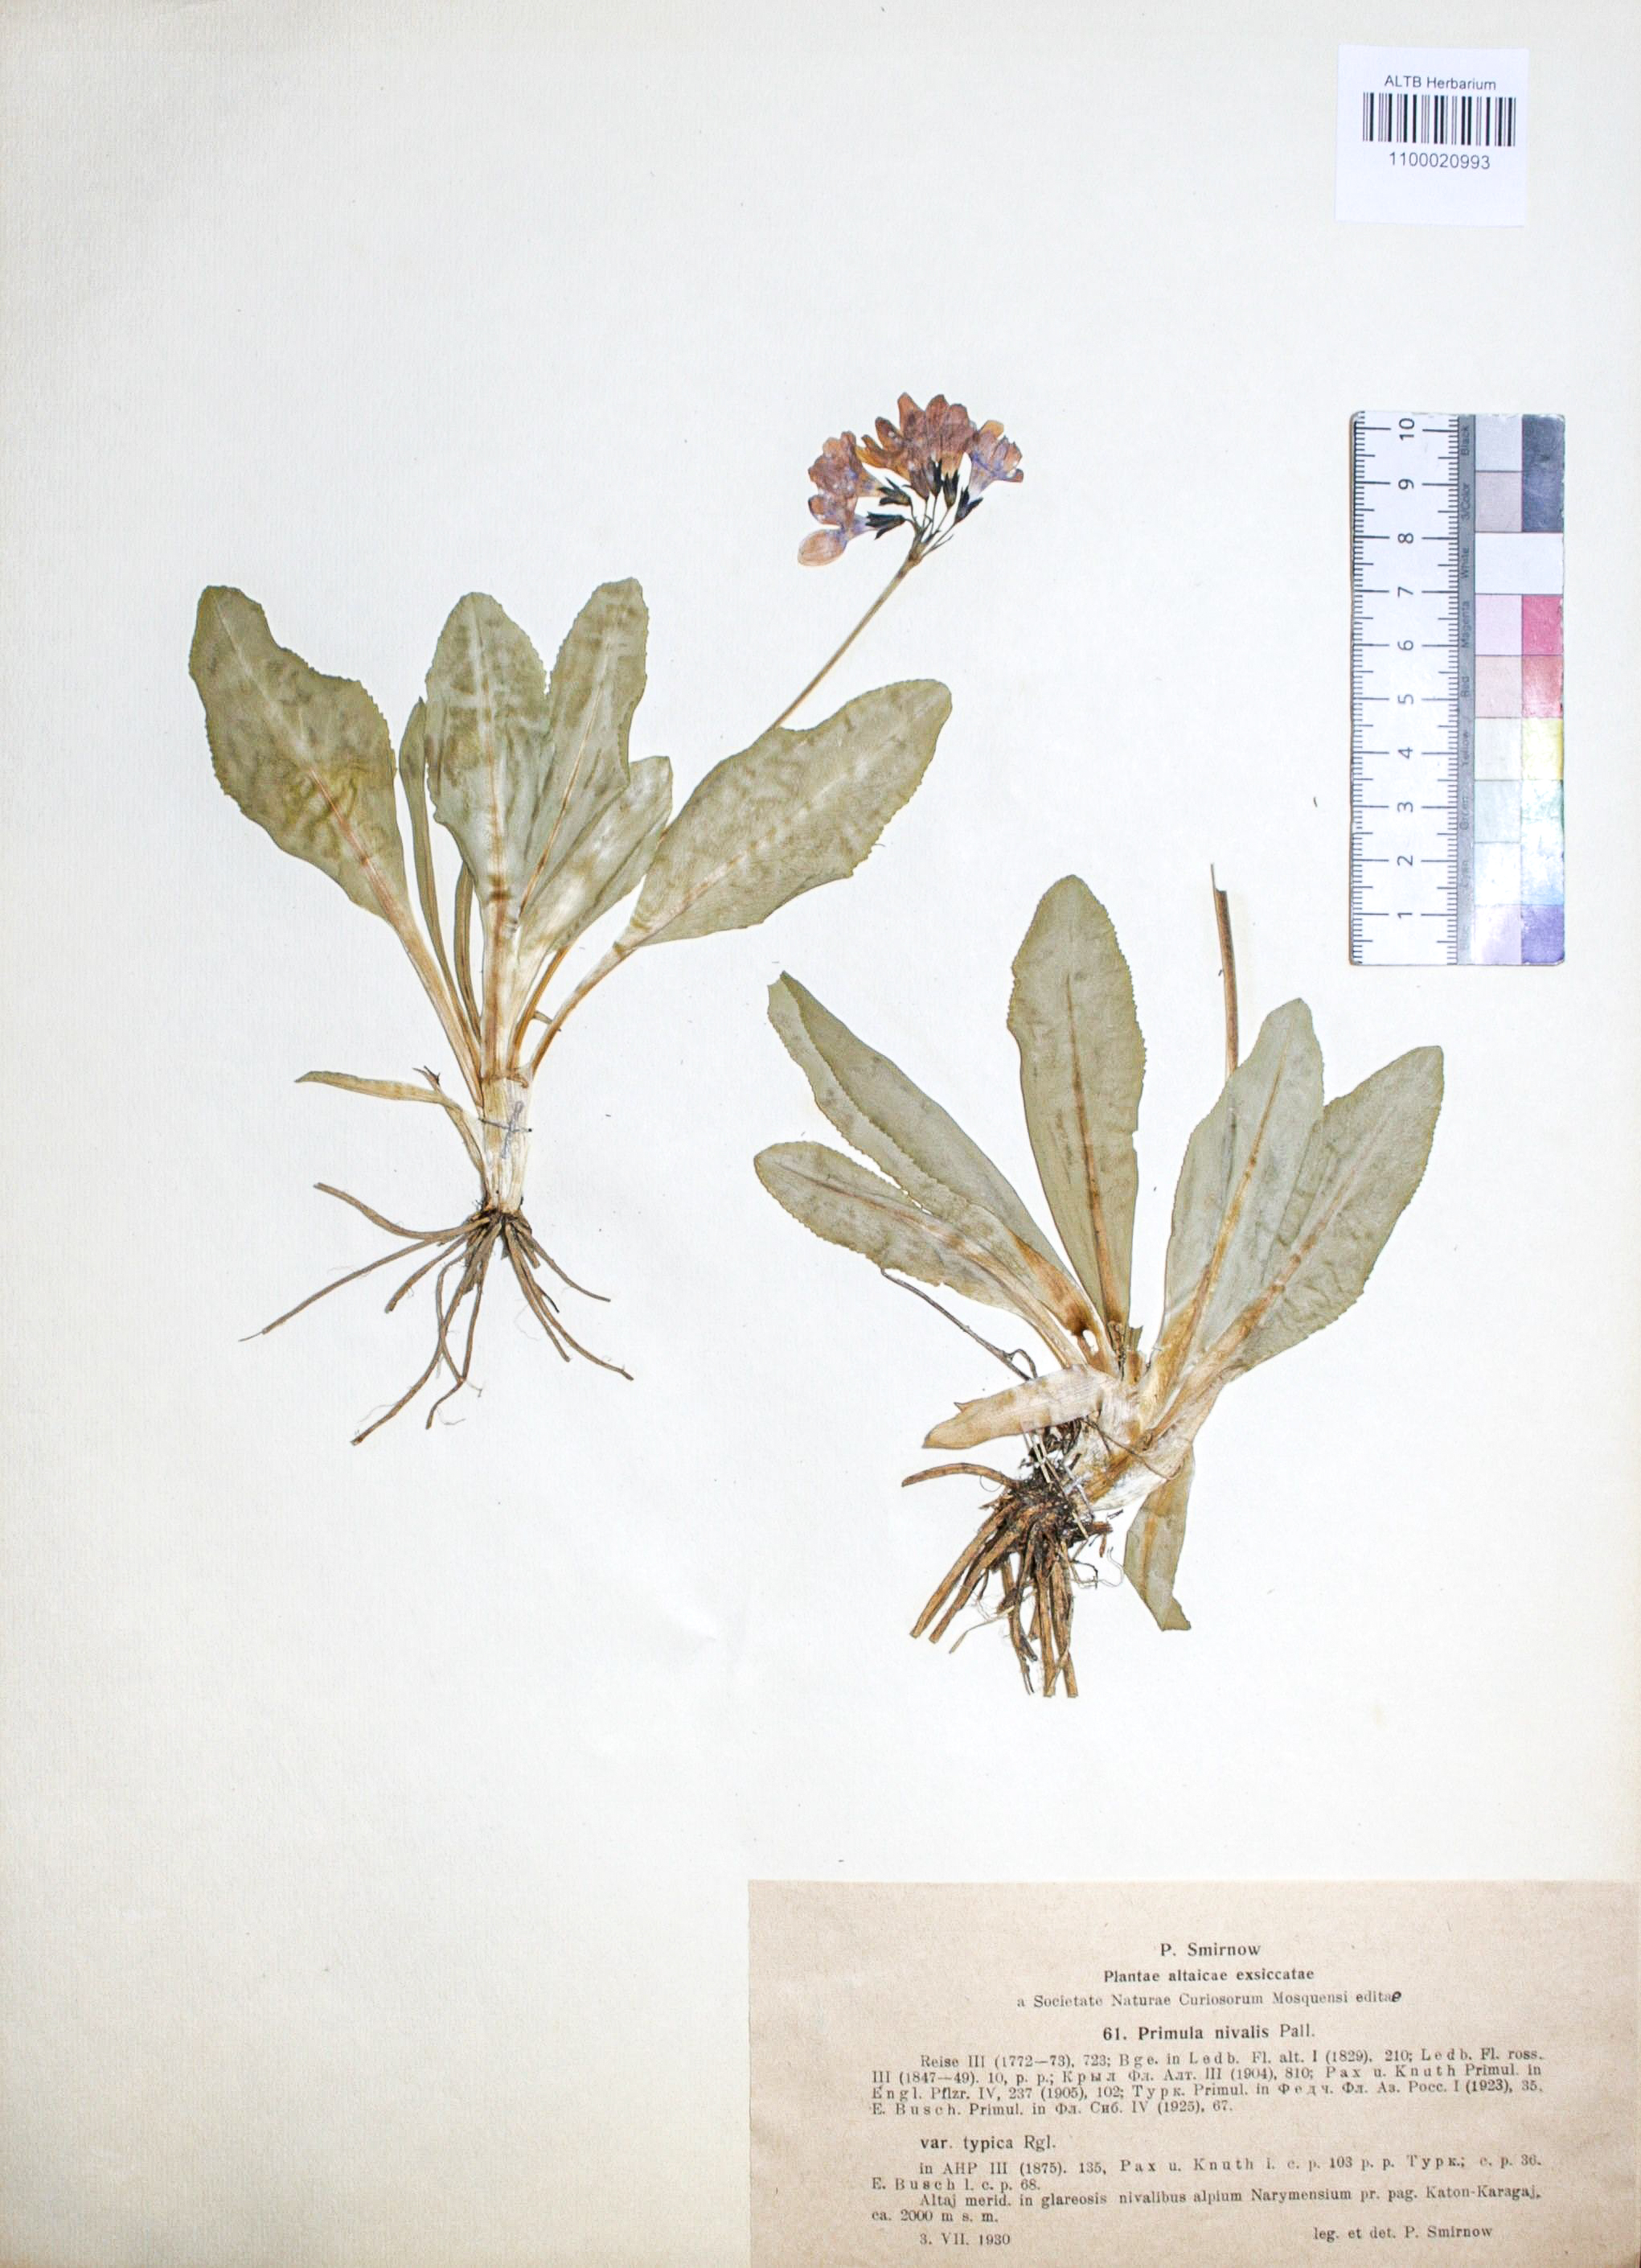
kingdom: Plantae
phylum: Tracheophyta
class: Magnoliopsida
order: Ericales
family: Primulaceae
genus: Primula
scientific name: Primula nivalis
